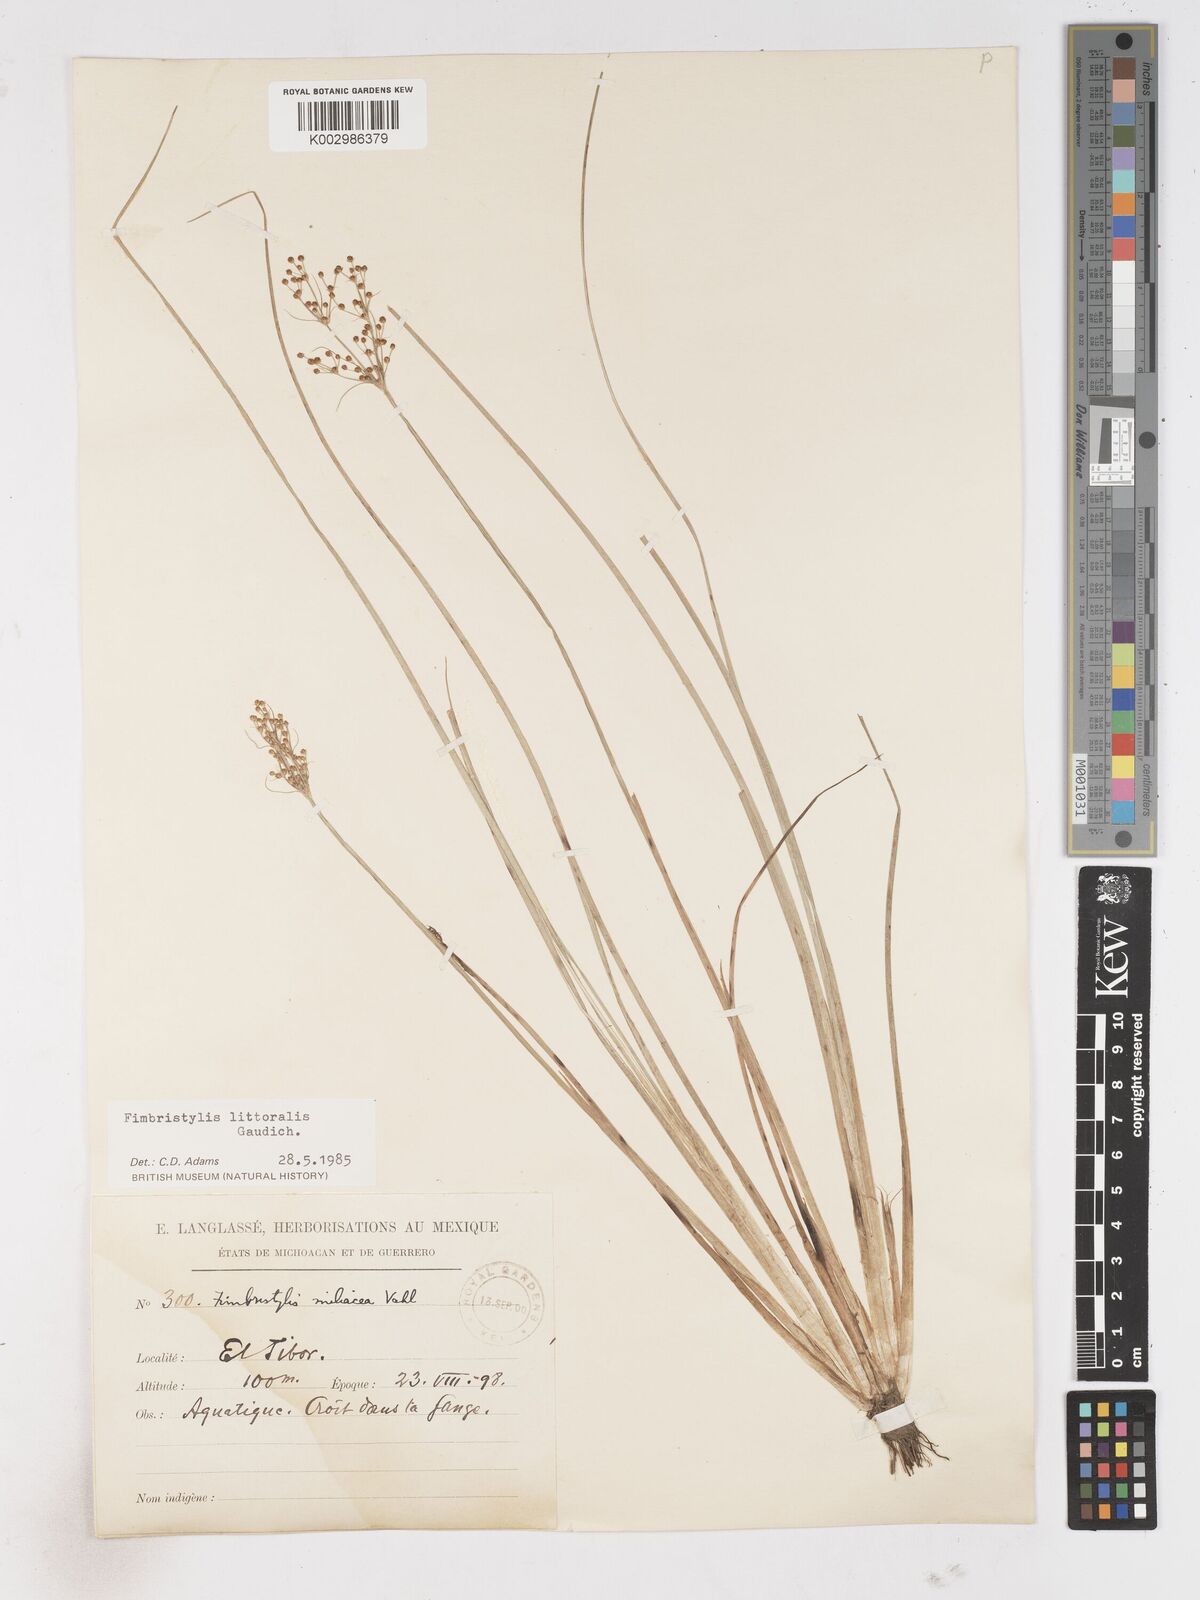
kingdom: Plantae
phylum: Tracheophyta
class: Liliopsida
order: Poales
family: Cyperaceae
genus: Fimbristylis
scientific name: Fimbristylis littoralis
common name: Fimbry
